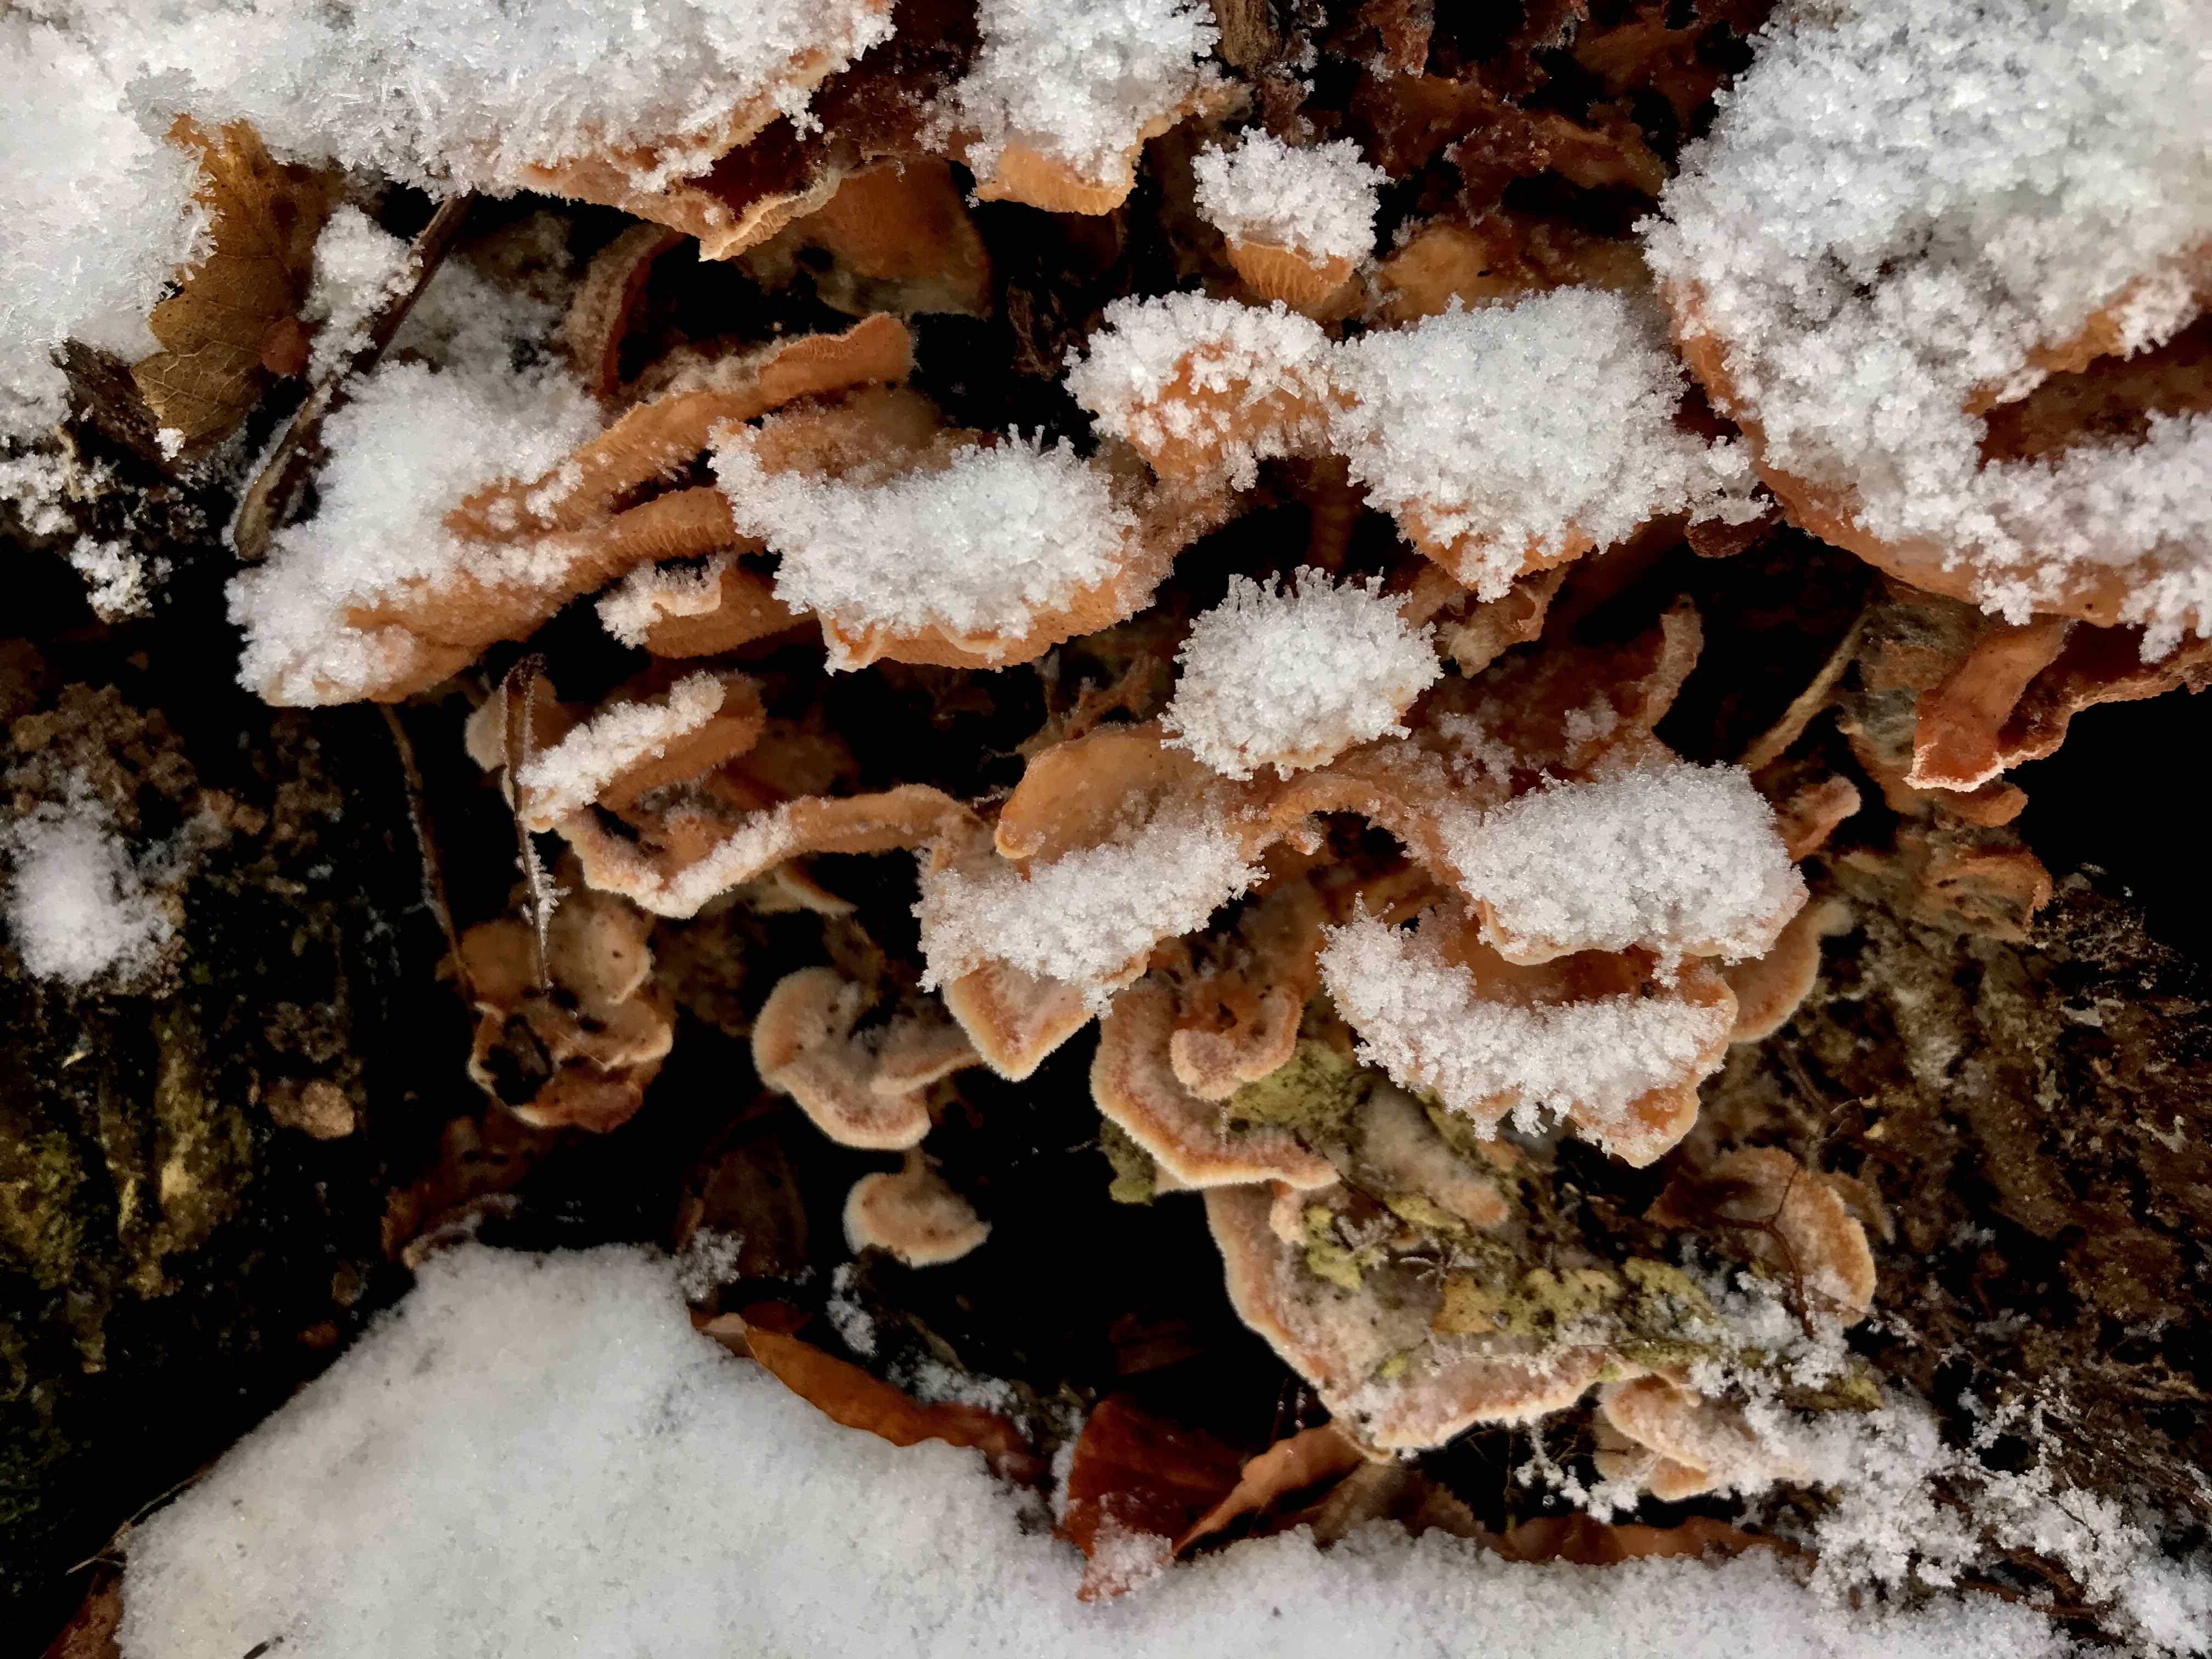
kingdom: Fungi
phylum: Basidiomycota
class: Agaricomycetes
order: Polyporales
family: Meruliaceae
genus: Phlebia
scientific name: Phlebia tremellosa
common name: bævrende åresvamp
